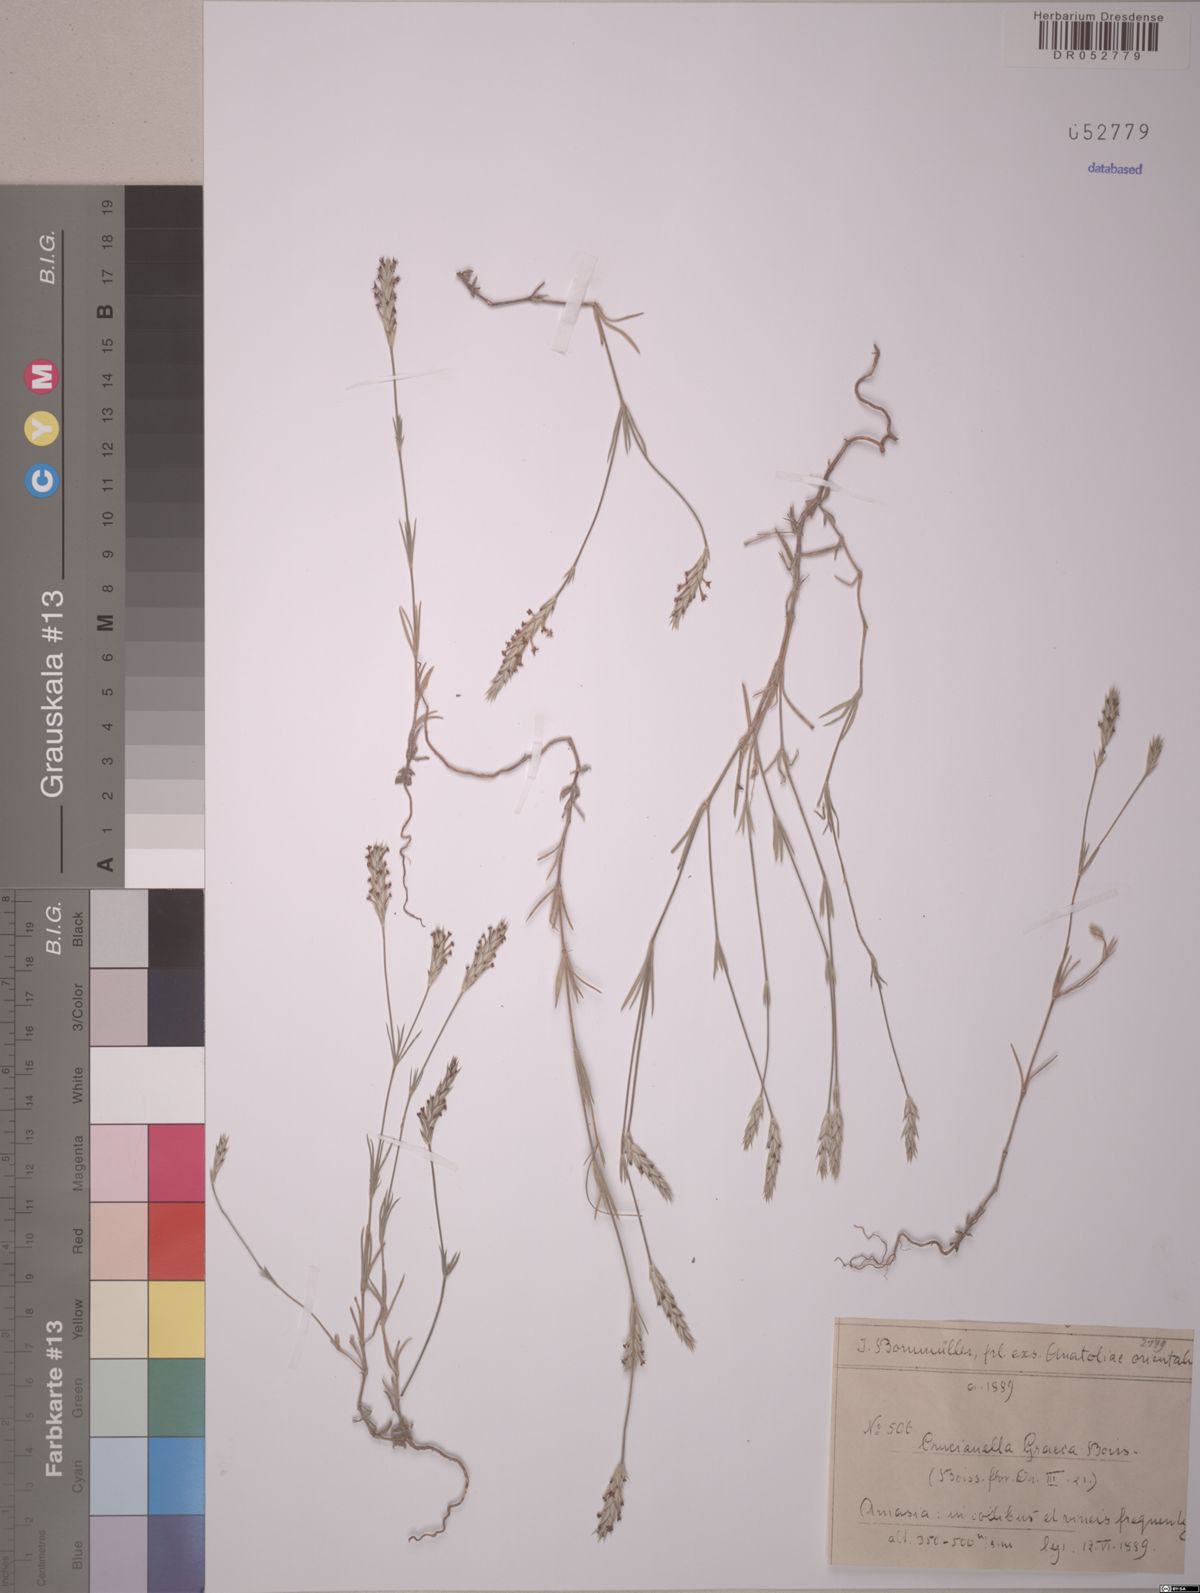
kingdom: Plantae
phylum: Tracheophyta
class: Magnoliopsida
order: Gentianales
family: Rubiaceae
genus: Crucianella
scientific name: Crucianella graeca
